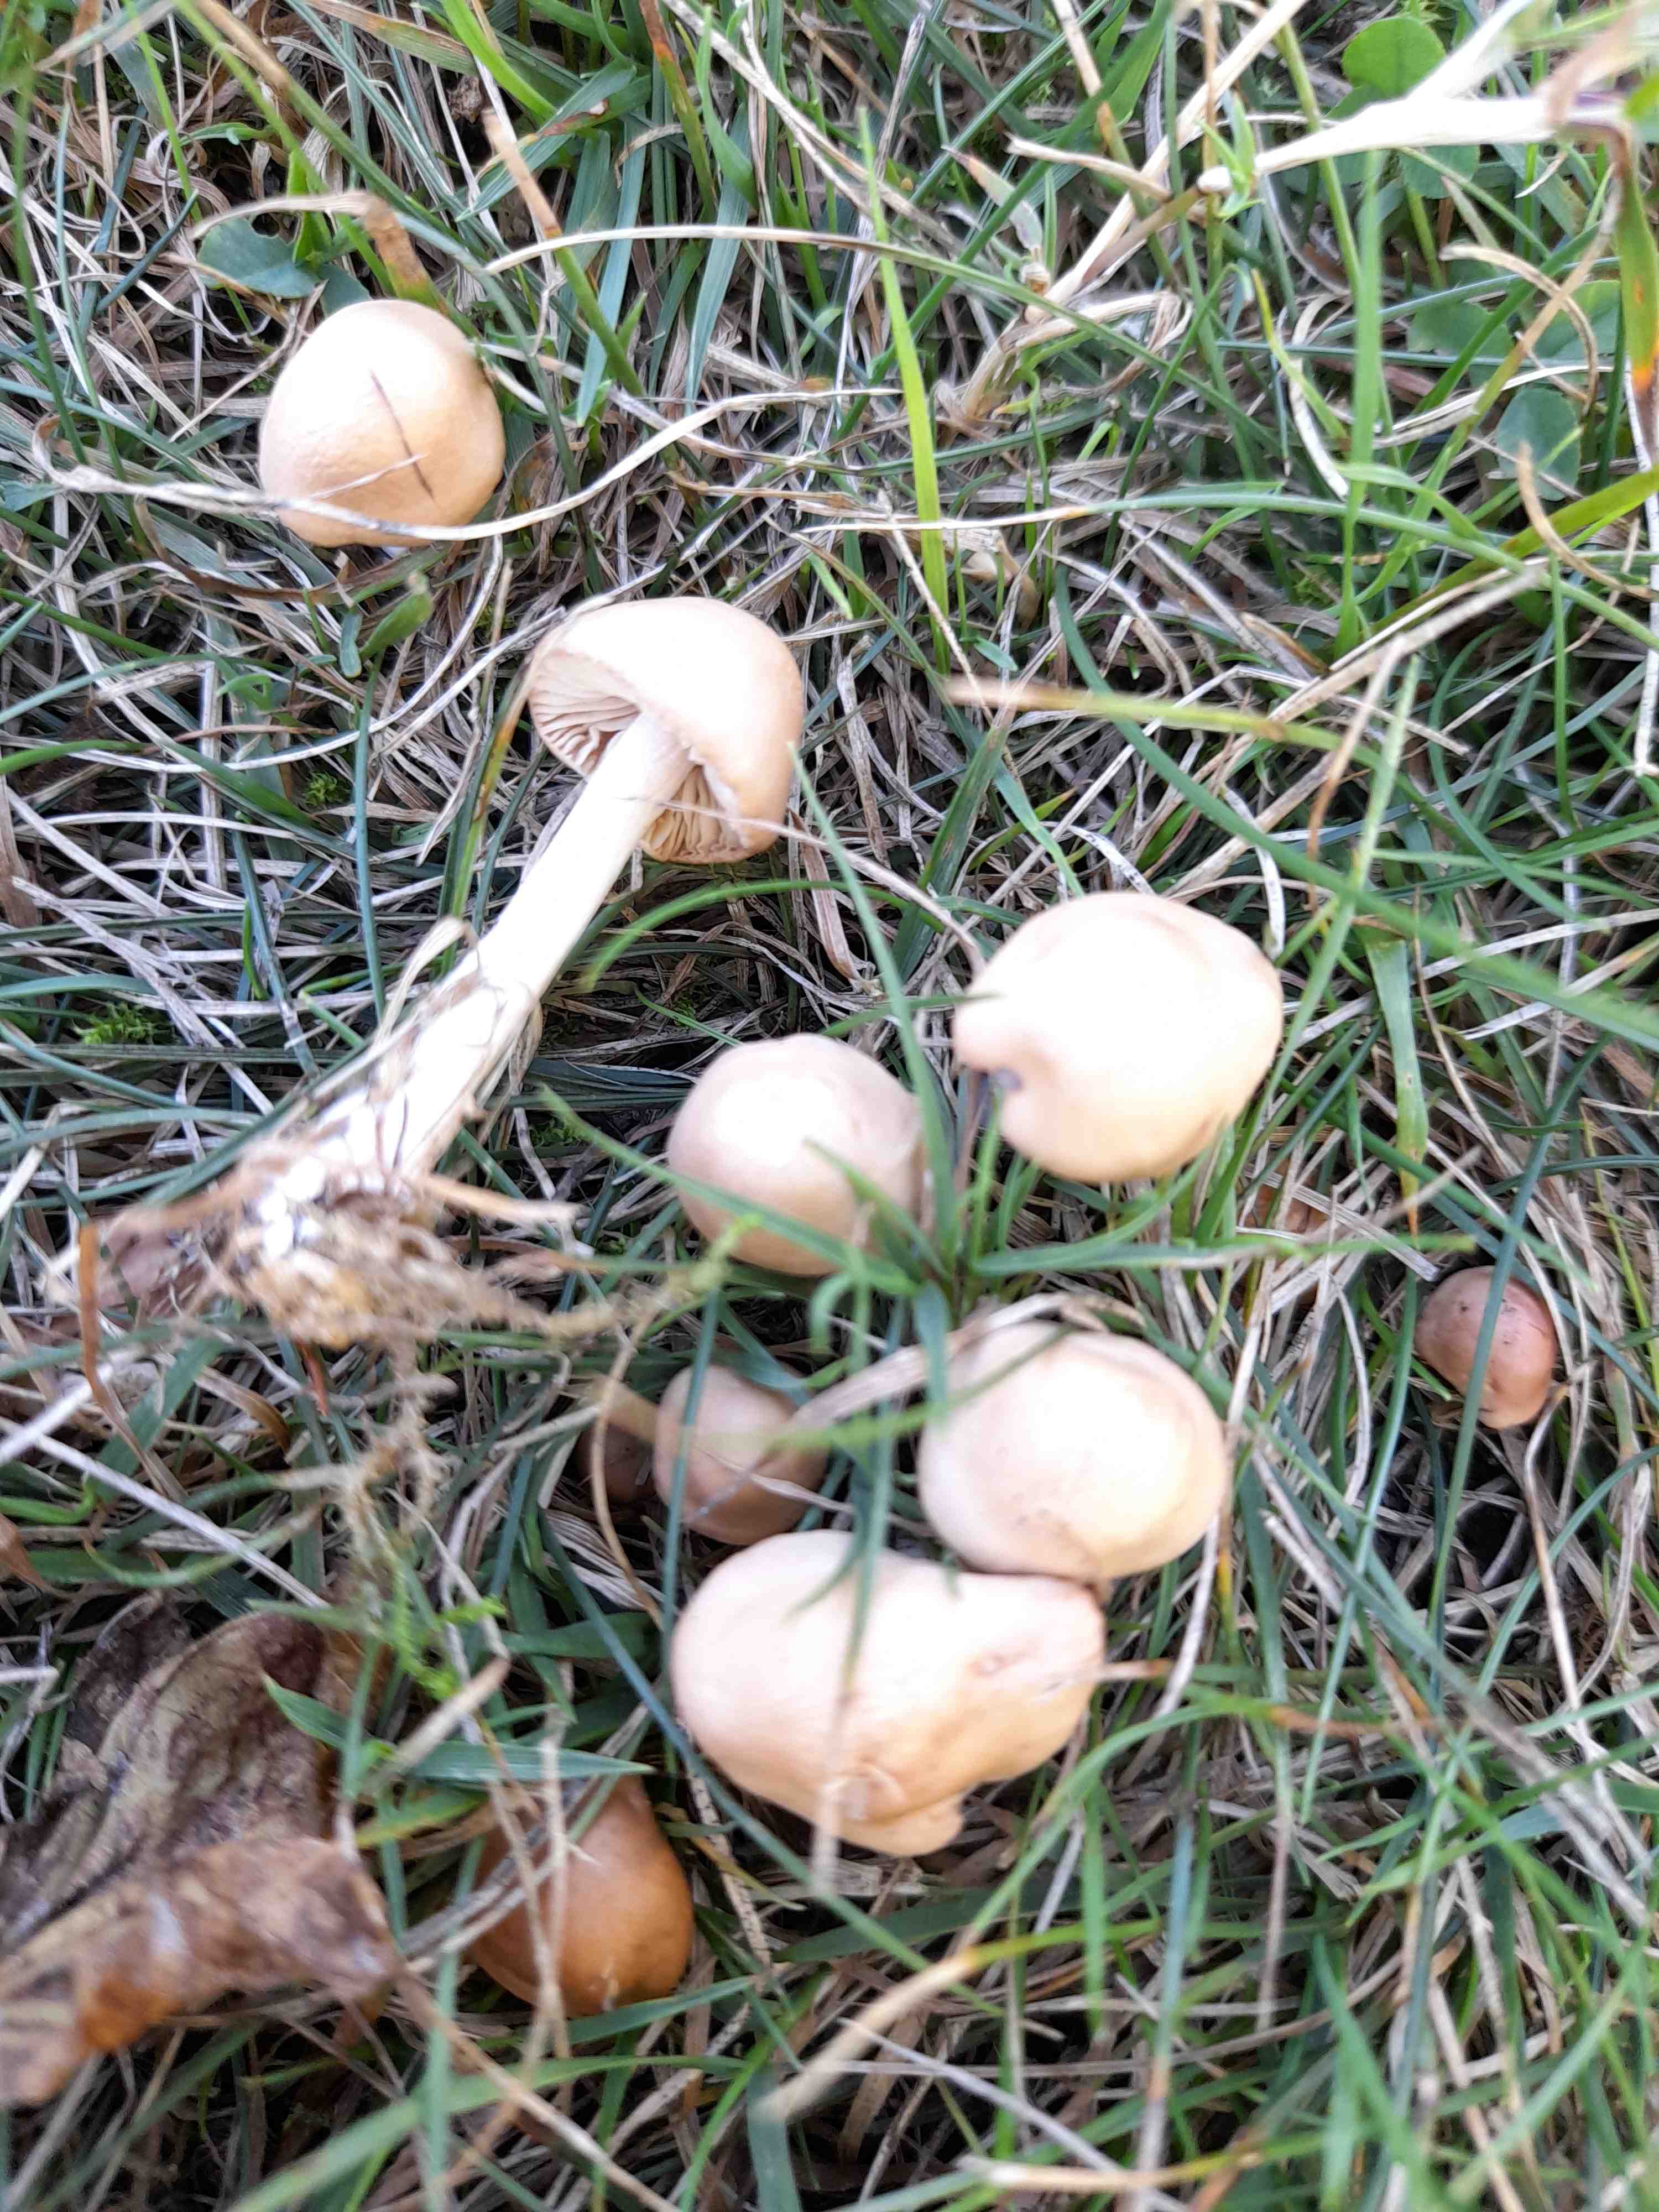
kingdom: Fungi
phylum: Basidiomycota
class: Agaricomycetes
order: Agaricales
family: Marasmiaceae
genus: Marasmius
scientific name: Marasmius oreades
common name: elledans-bruskhat
